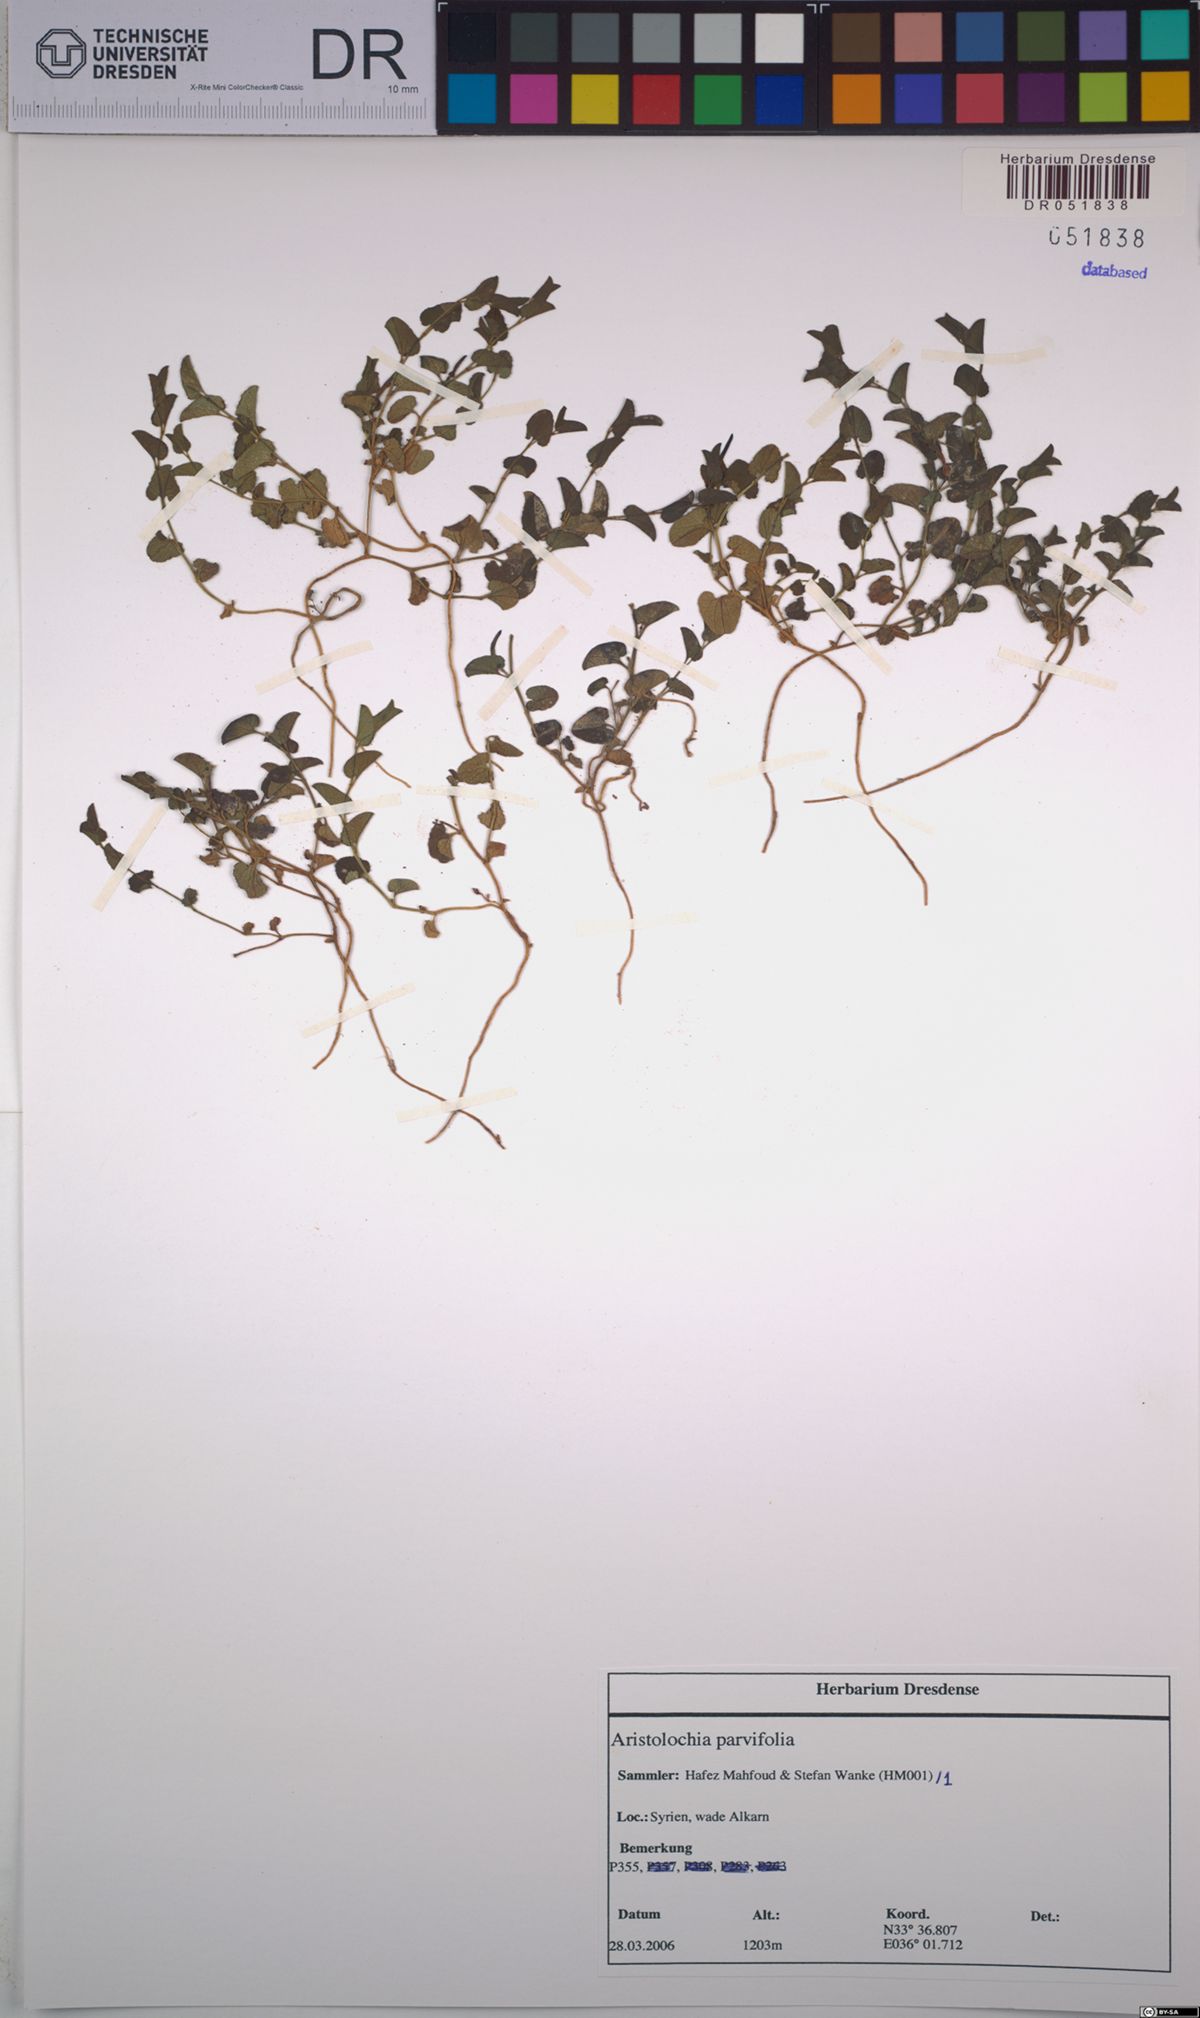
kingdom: Plantae
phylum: Tracheophyta
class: Magnoliopsida
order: Piperales
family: Aristolochiaceae
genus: Aristolochia
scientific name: Aristolochia parvifolia
